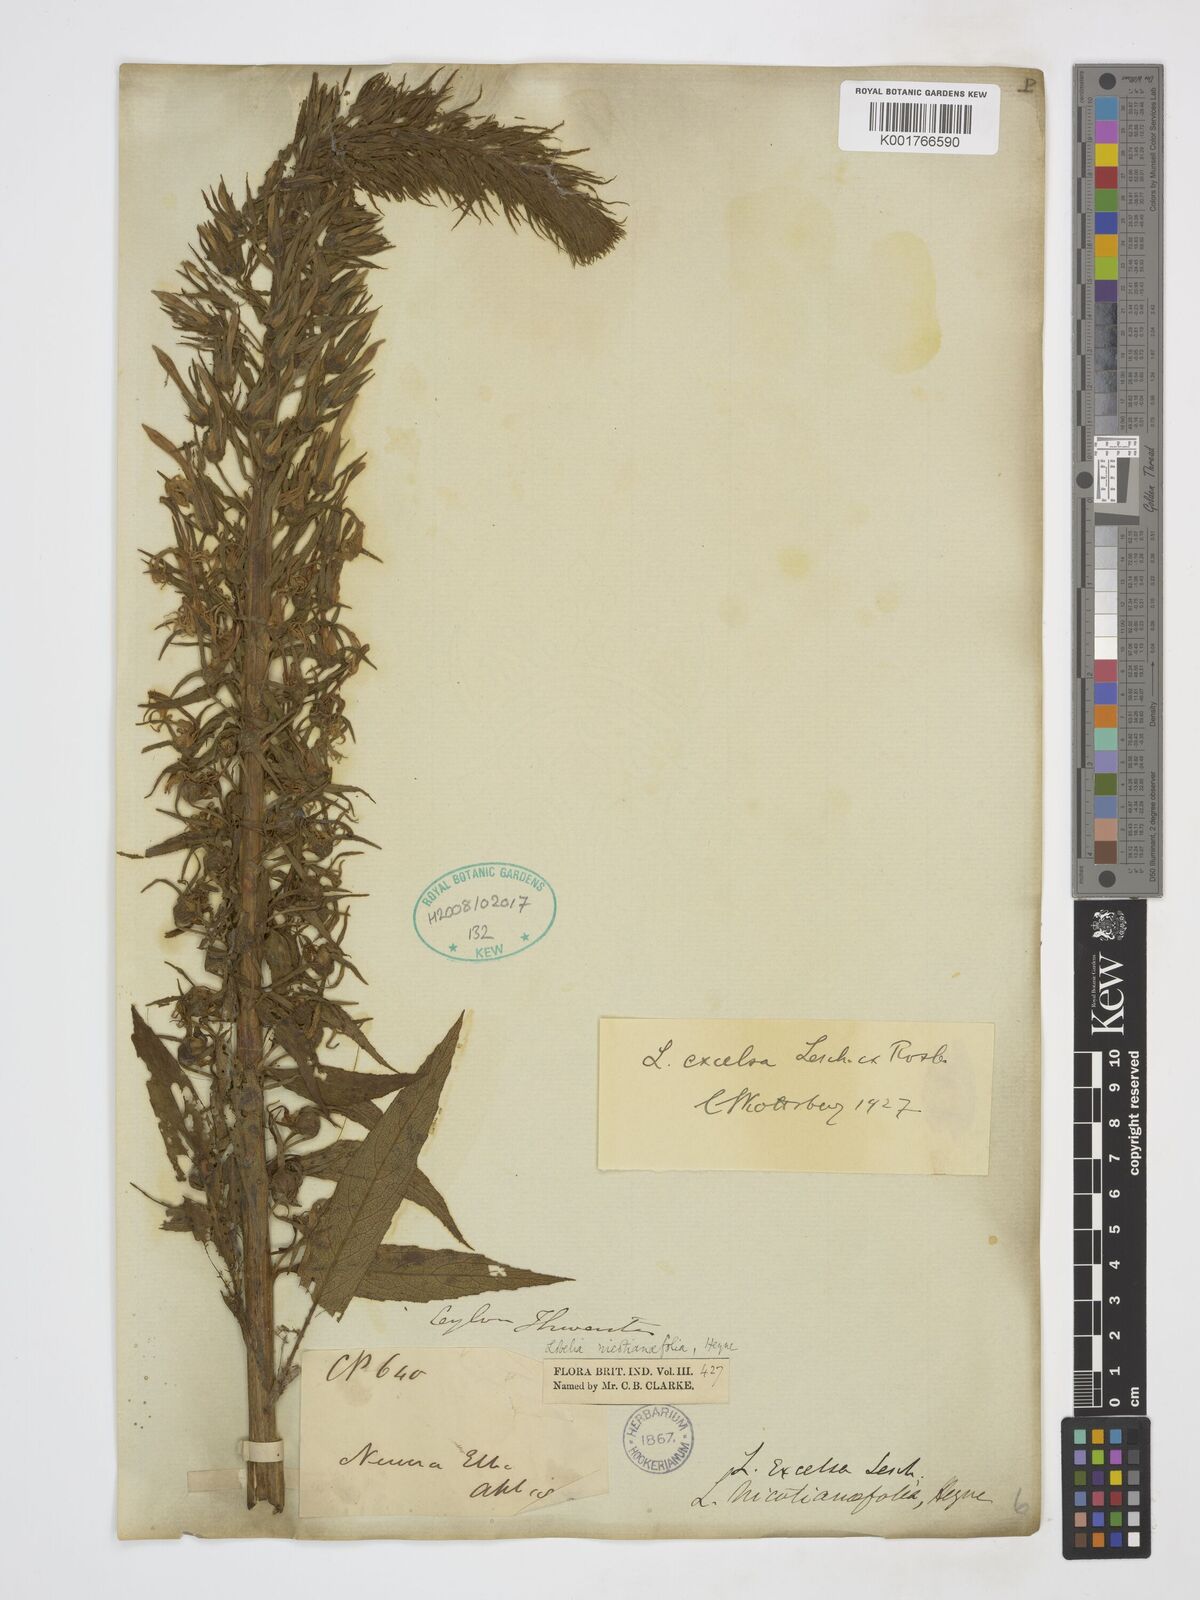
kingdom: Plantae
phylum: Tracheophyta
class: Magnoliopsida
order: Asterales
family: Campanulaceae
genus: Lobelia
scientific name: Lobelia excelsa
